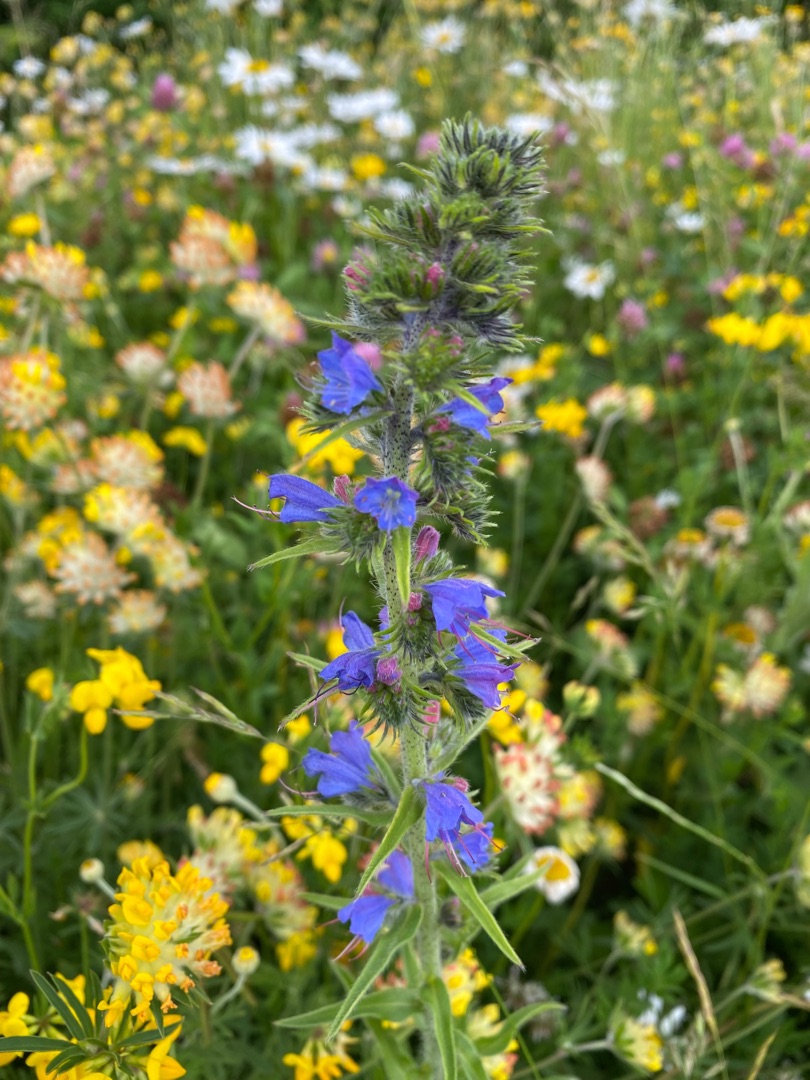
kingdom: Plantae
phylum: Tracheophyta
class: Magnoliopsida
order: Boraginales
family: Boraginaceae
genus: Echium
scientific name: Echium vulgare
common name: Slangehoved
